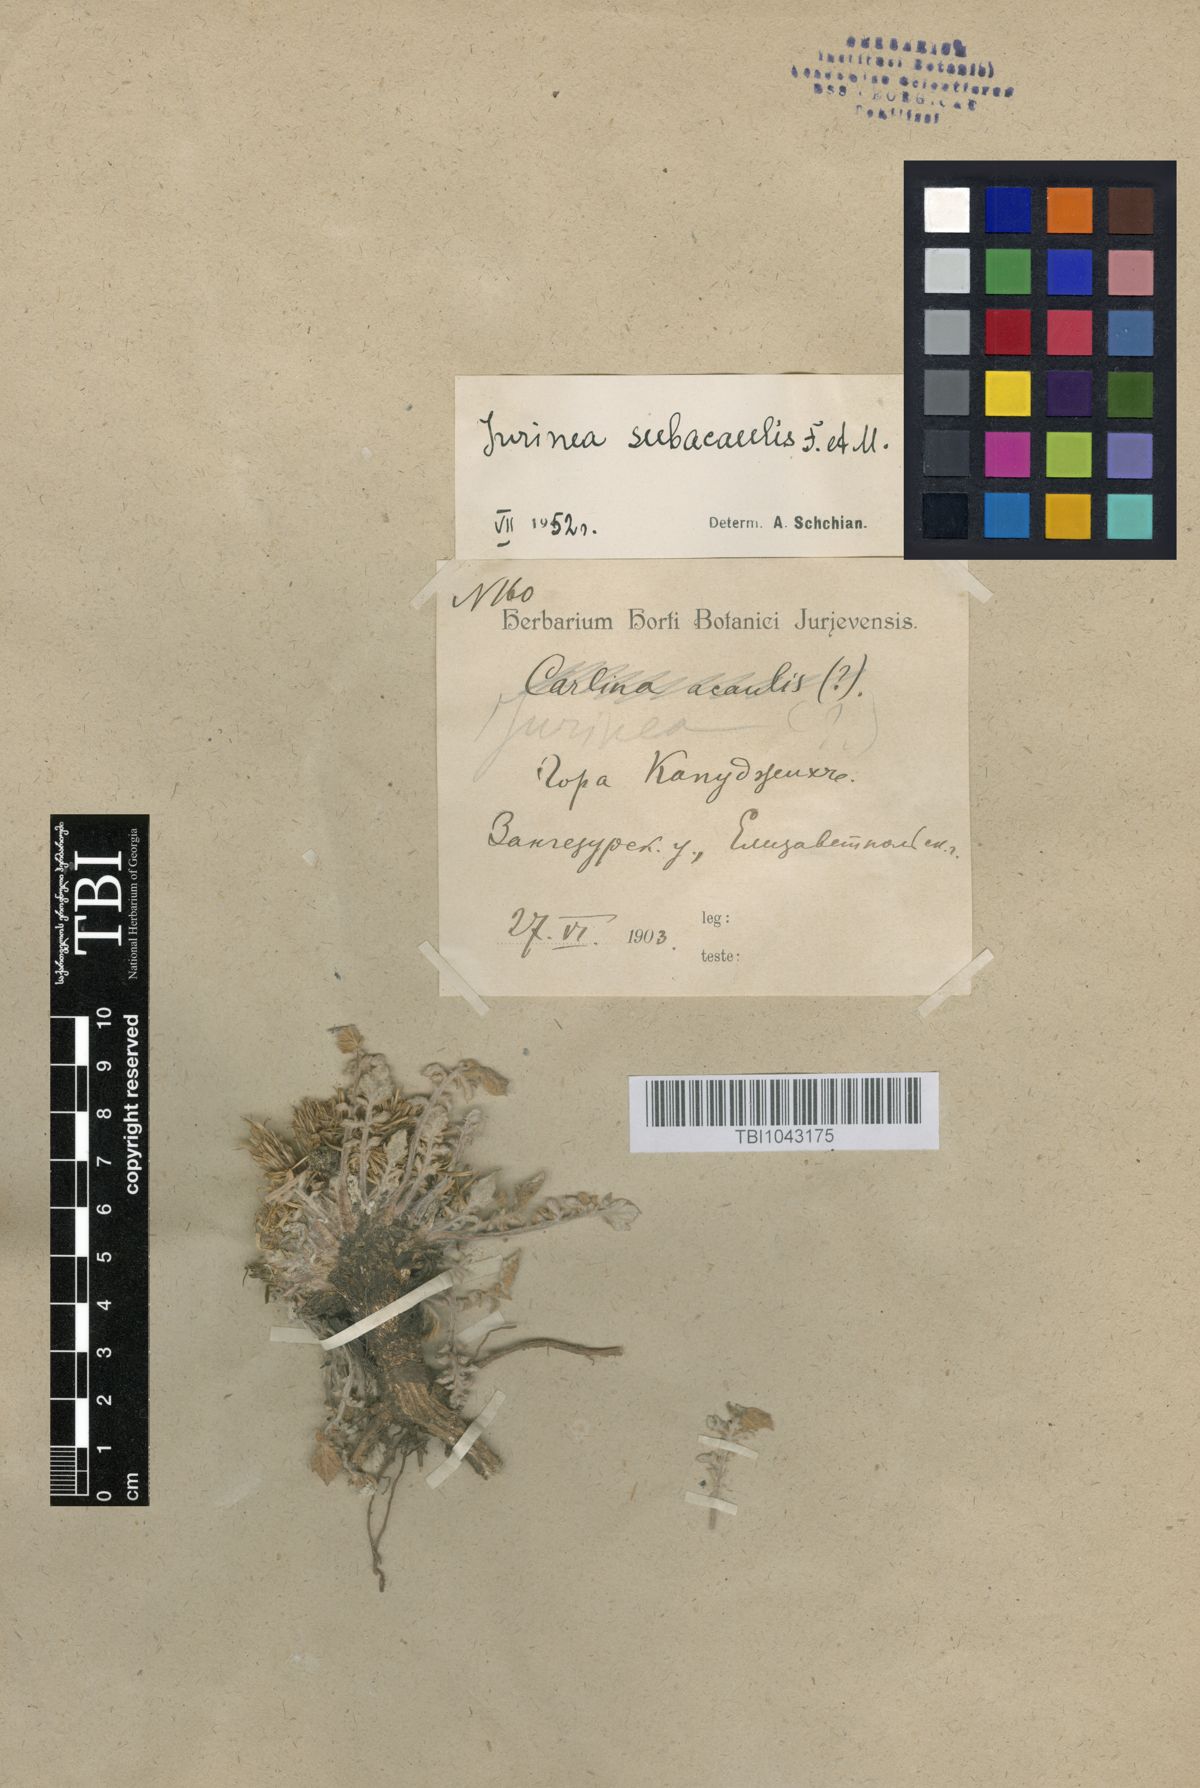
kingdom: Plantae
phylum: Tracheophyta
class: Magnoliopsida
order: Asterales
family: Asteraceae
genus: Jurinea
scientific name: Jurinea moschus
